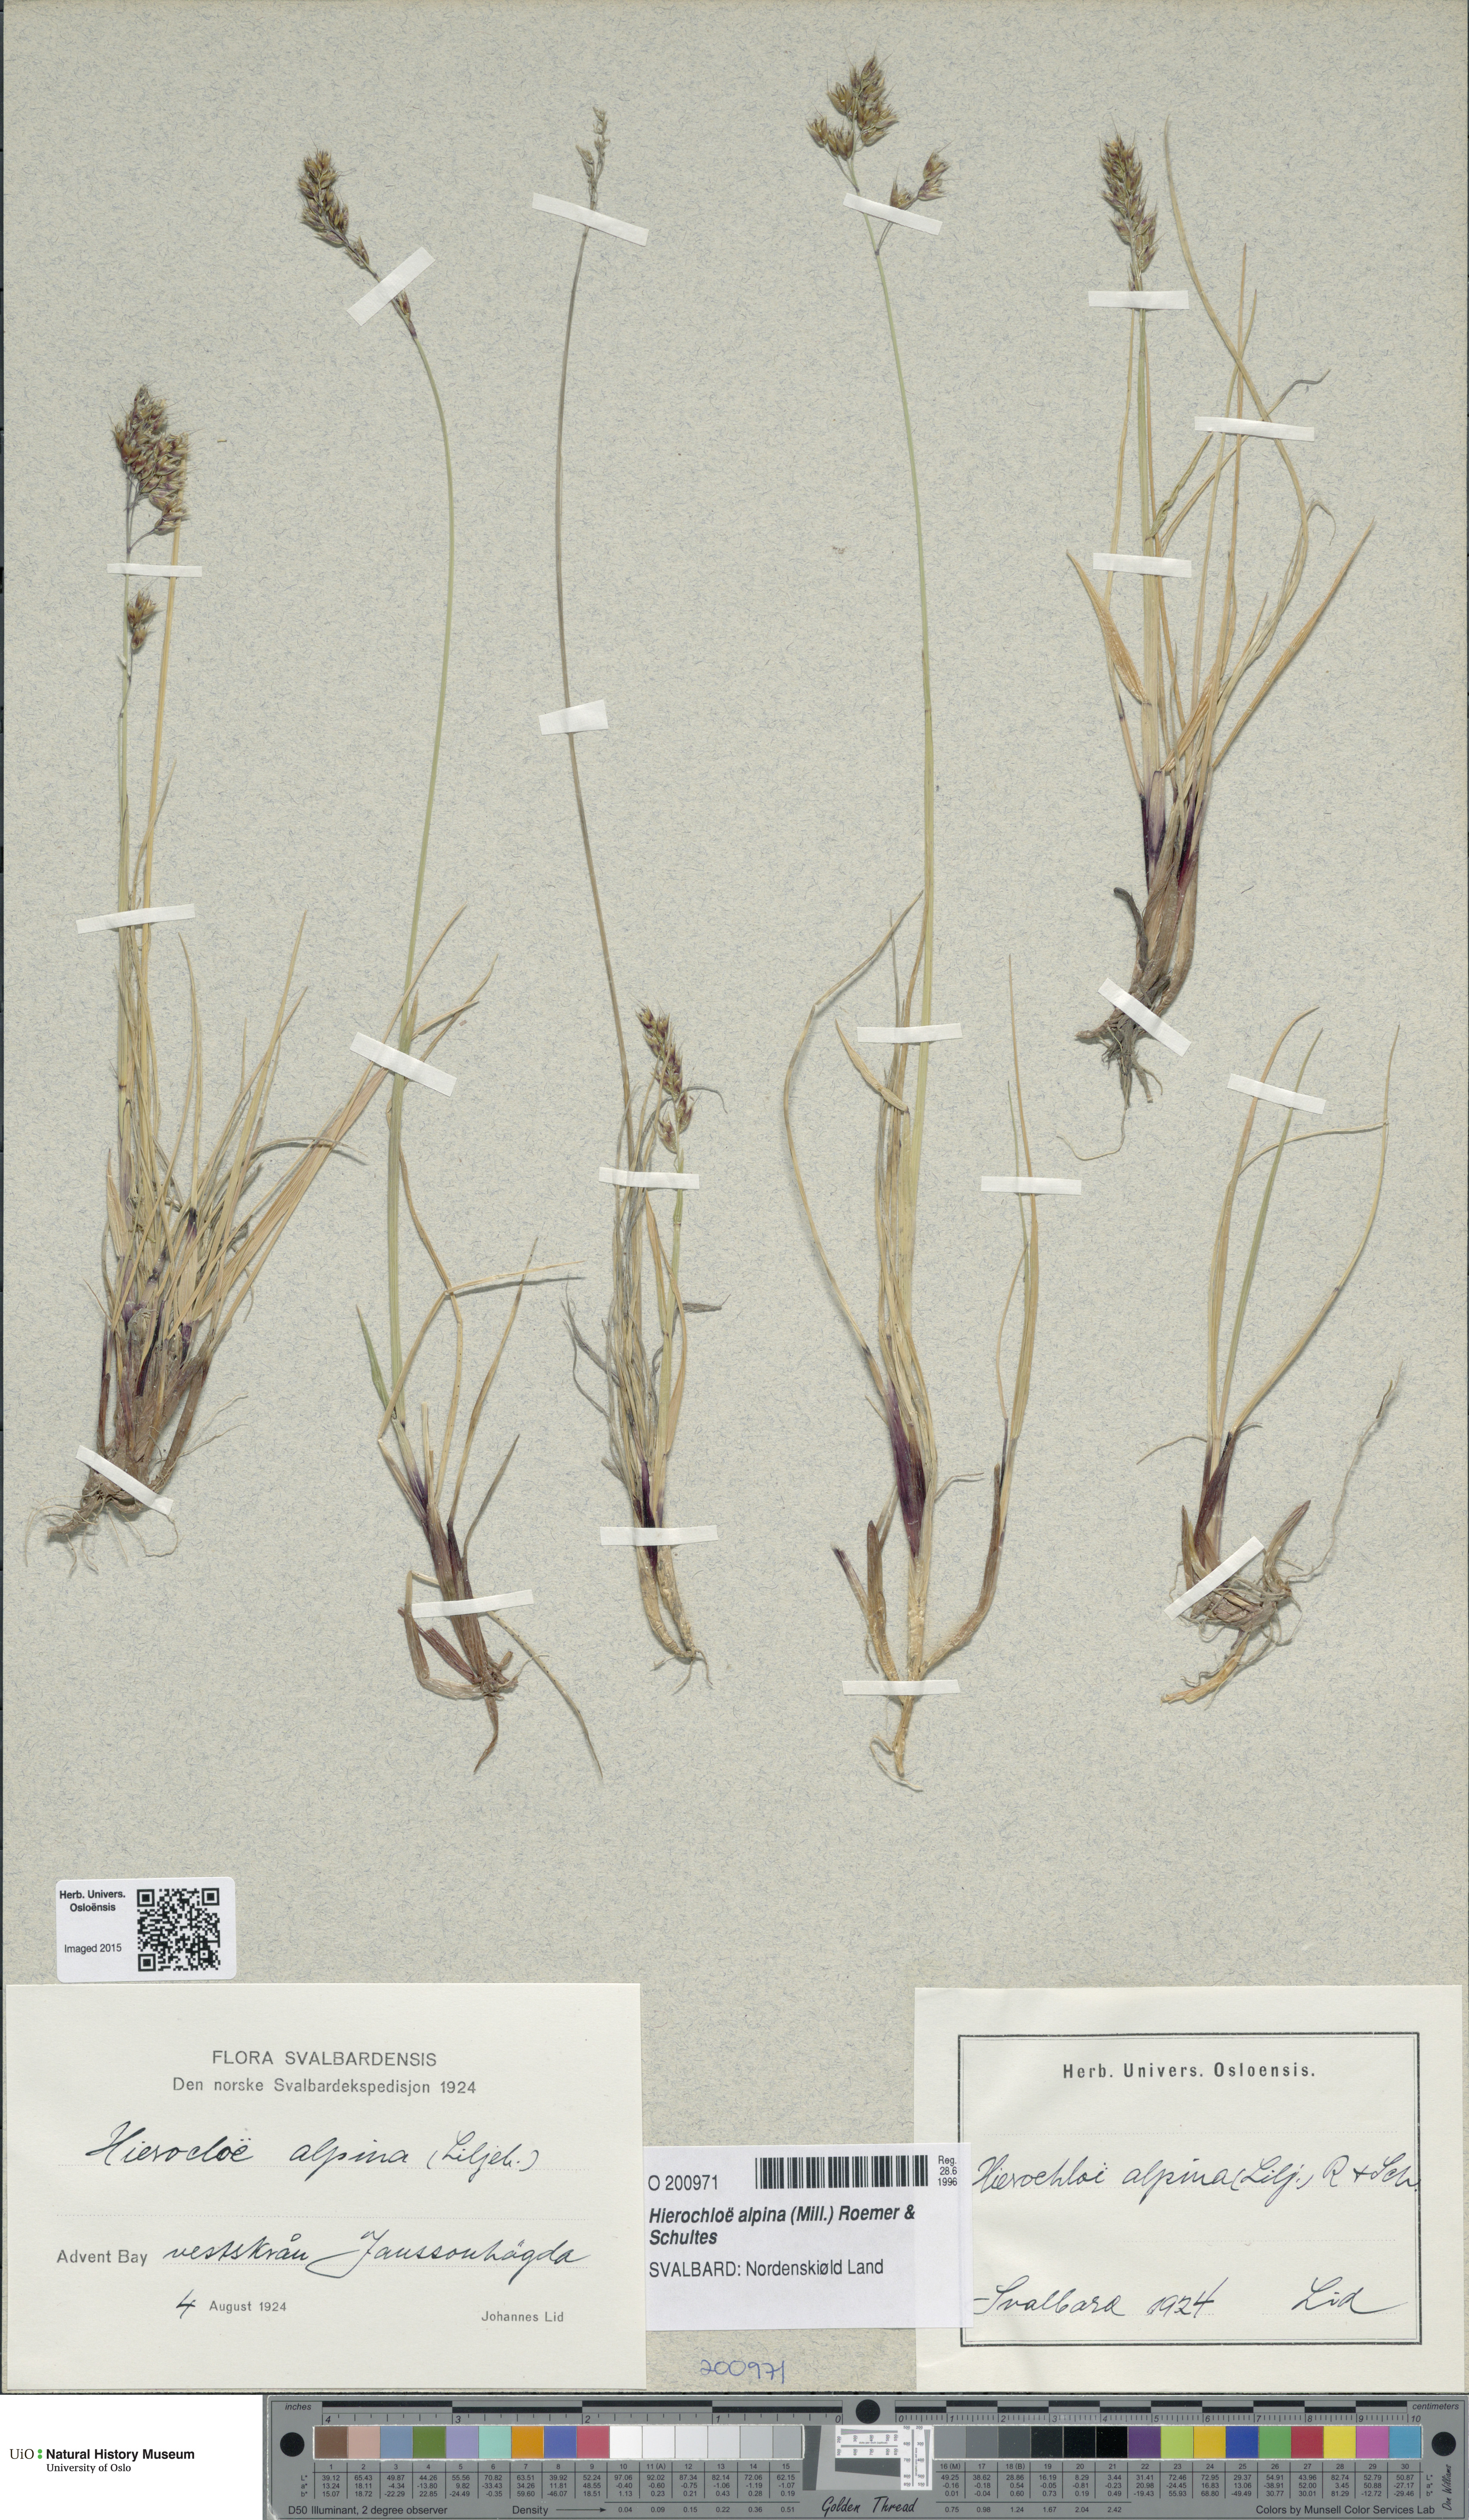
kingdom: Plantae
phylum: Tracheophyta
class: Liliopsida
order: Poales
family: Poaceae
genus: Anthoxanthum
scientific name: Anthoxanthum monticola
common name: Alpine sweetgrass
